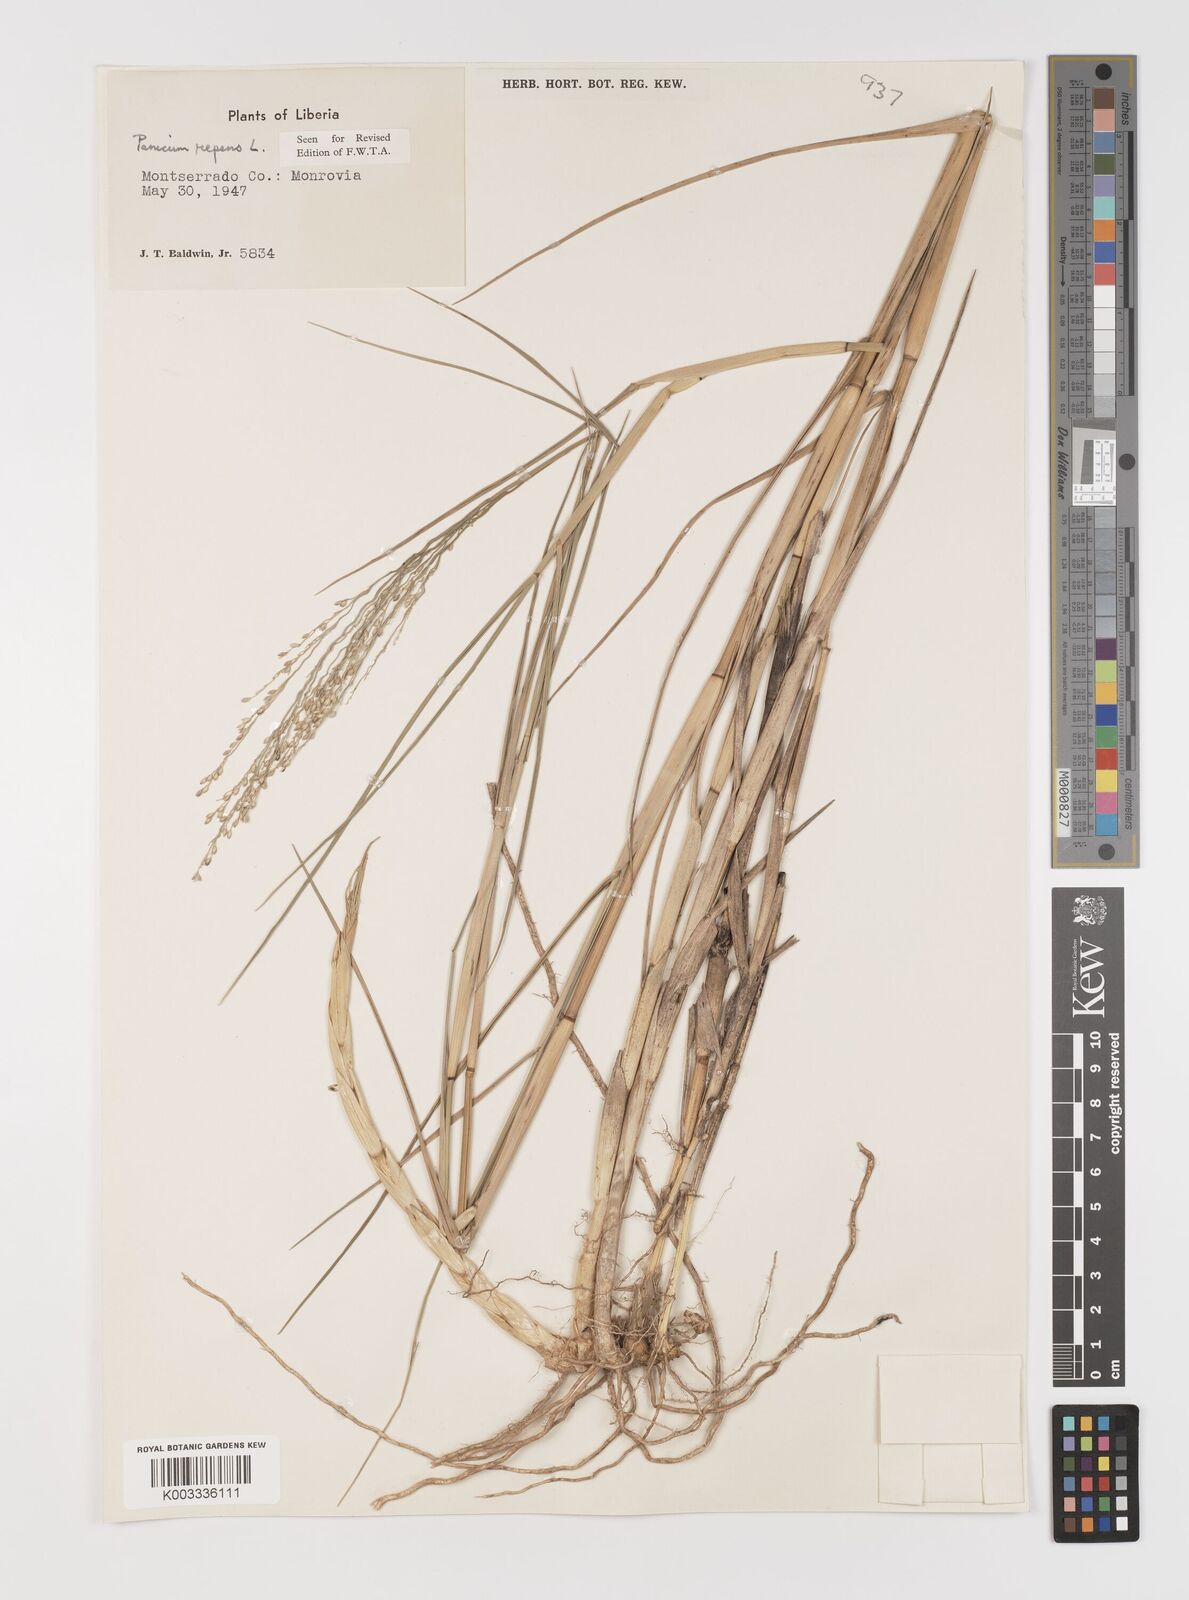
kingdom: Plantae
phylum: Tracheophyta
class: Liliopsida
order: Poales
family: Poaceae
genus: Panicum
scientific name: Panicum repens
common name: Torpedo grass
